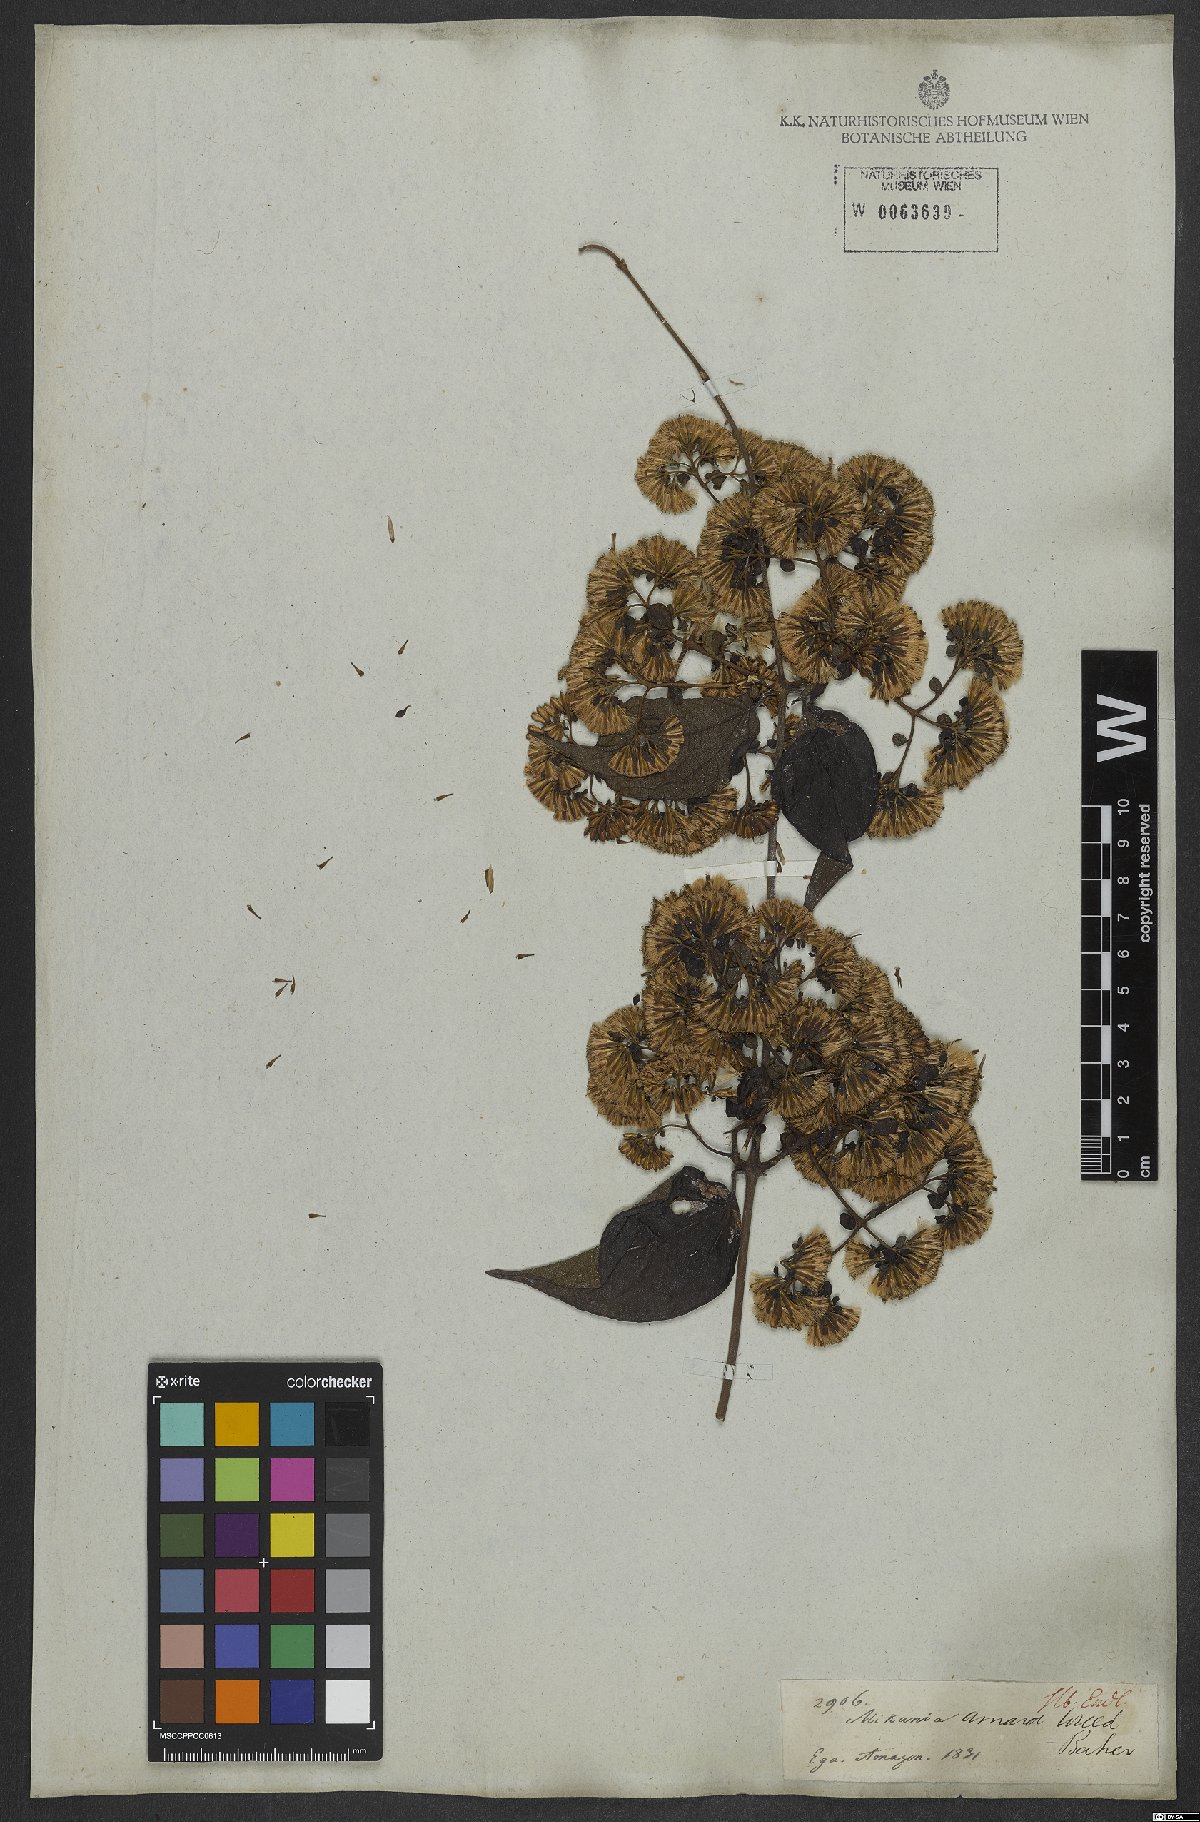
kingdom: Plantae
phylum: Tracheophyta
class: Magnoliopsida
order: Asterales
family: Asteraceae
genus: Mikania
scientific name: Mikania parviflora
